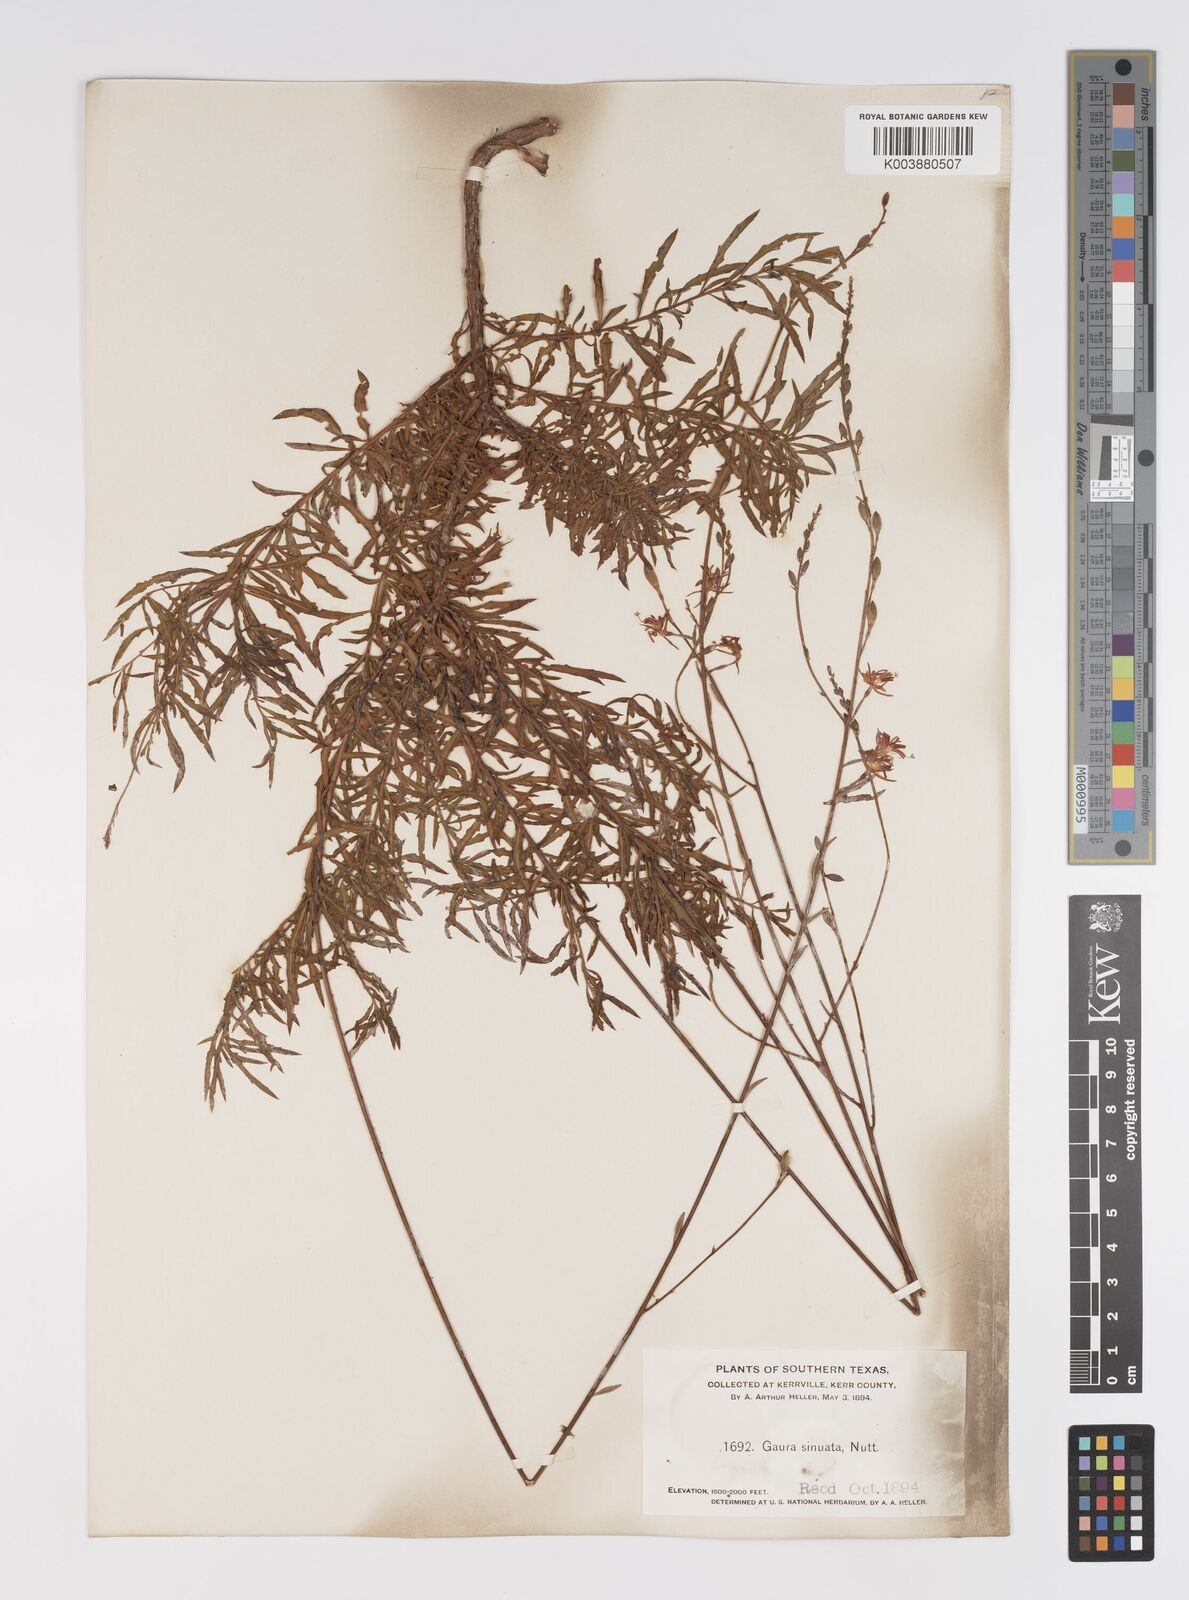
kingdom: Plantae
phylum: Tracheophyta
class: Magnoliopsida
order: Myrtales
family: Onagraceae
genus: Oenothera
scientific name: Oenothera sinuosa
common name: Wavyleaf beeblossom
